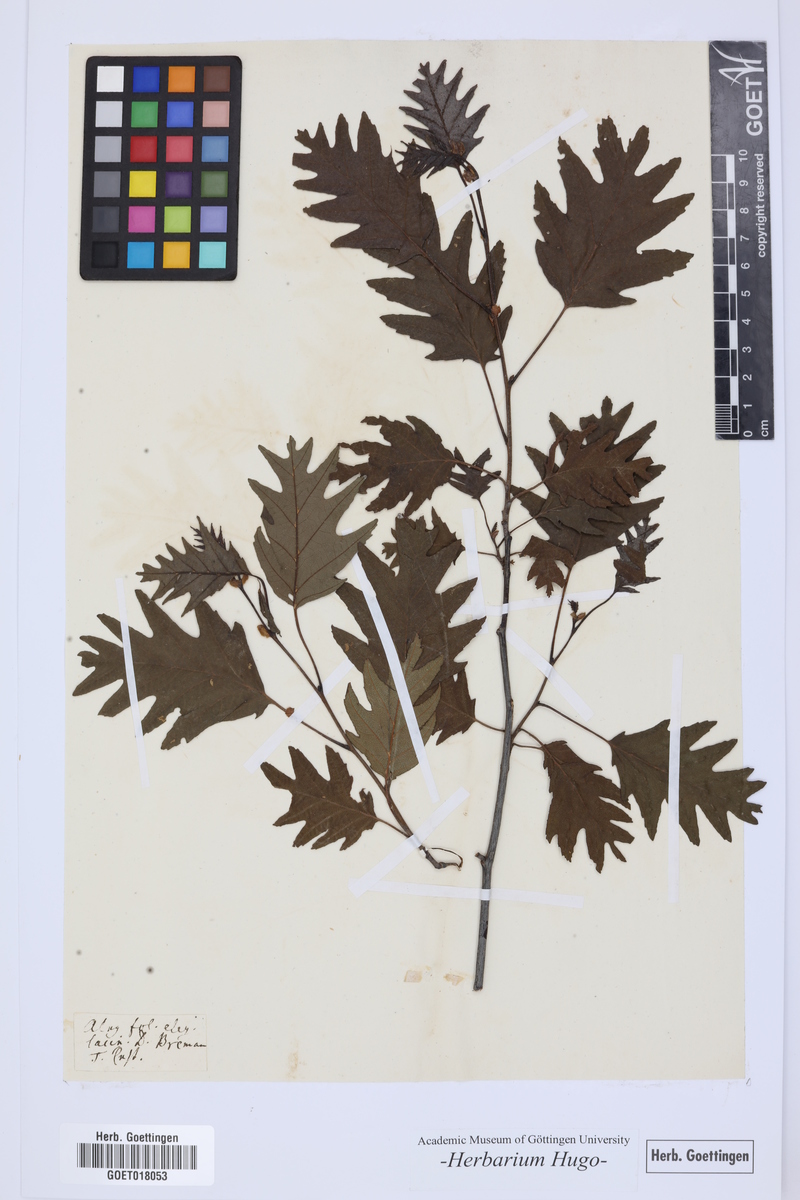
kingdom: Plantae
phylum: Tracheophyta
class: Magnoliopsida
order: Fagales
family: Betulaceae
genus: Alnus
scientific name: Alnus
